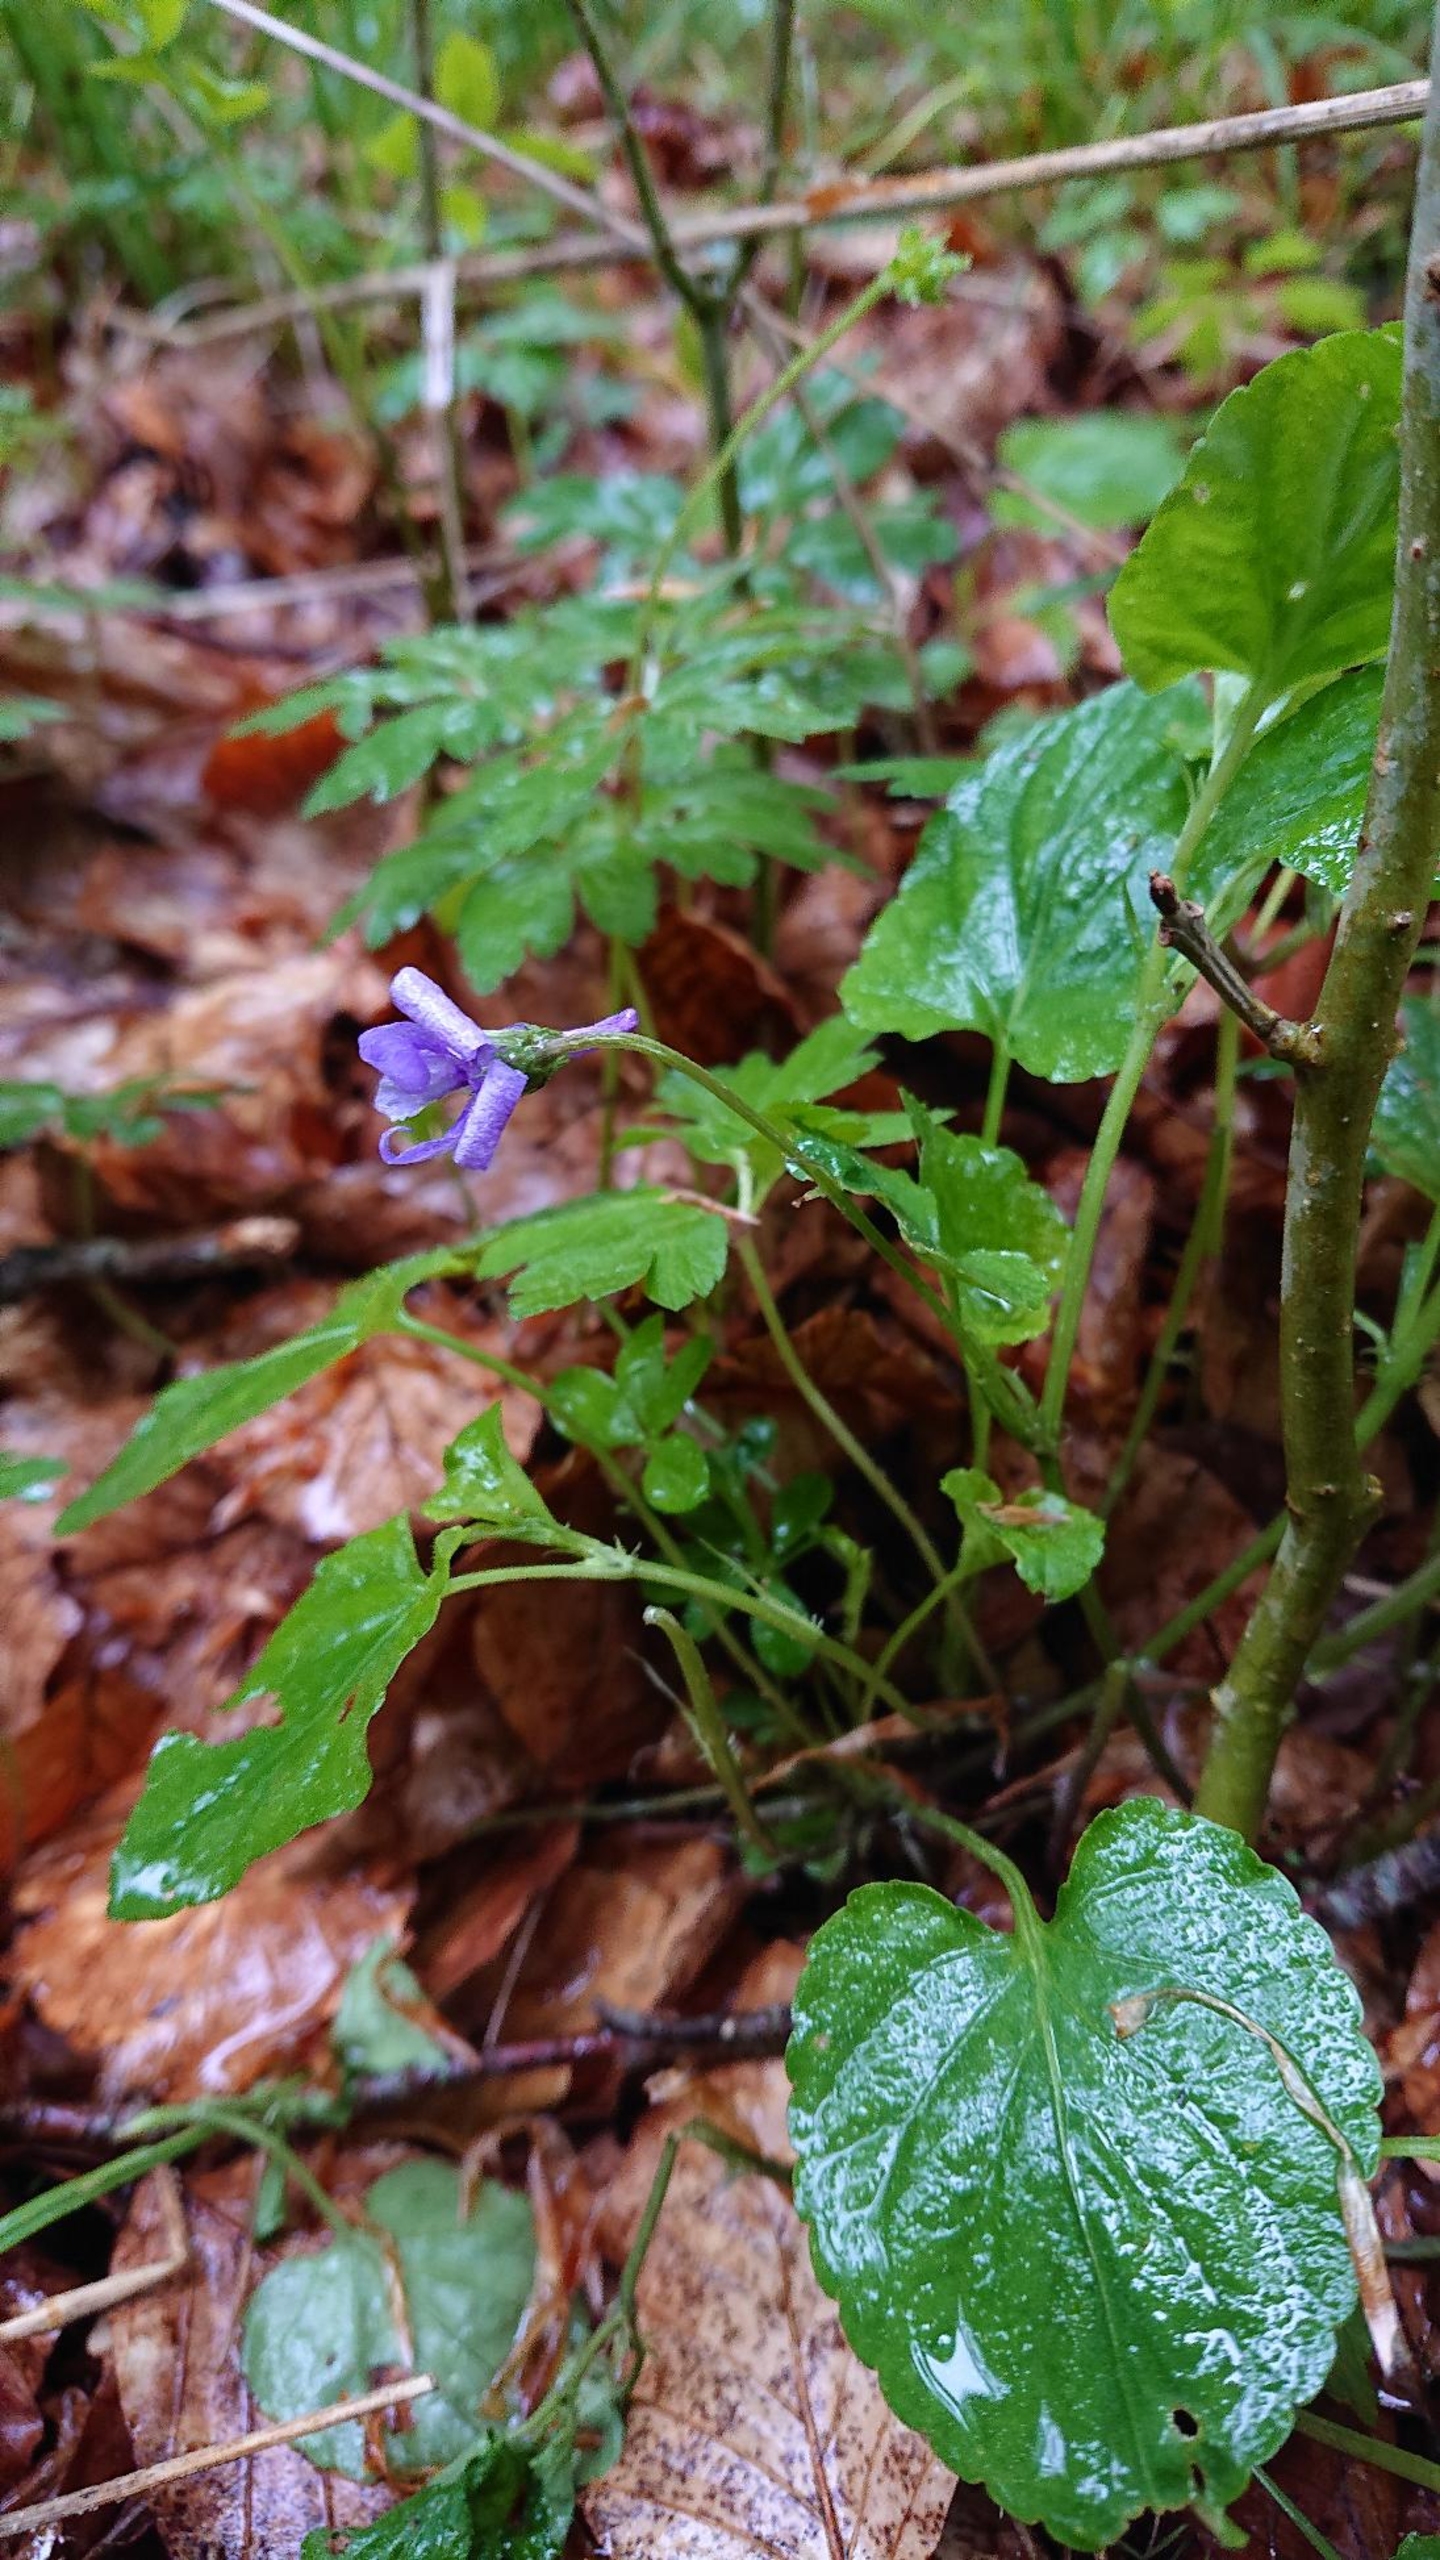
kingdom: Plantae
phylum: Tracheophyta
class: Magnoliopsida
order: Malpighiales
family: Violaceae
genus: Viola
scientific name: Viola reichenbachiana
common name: Skov-viol
